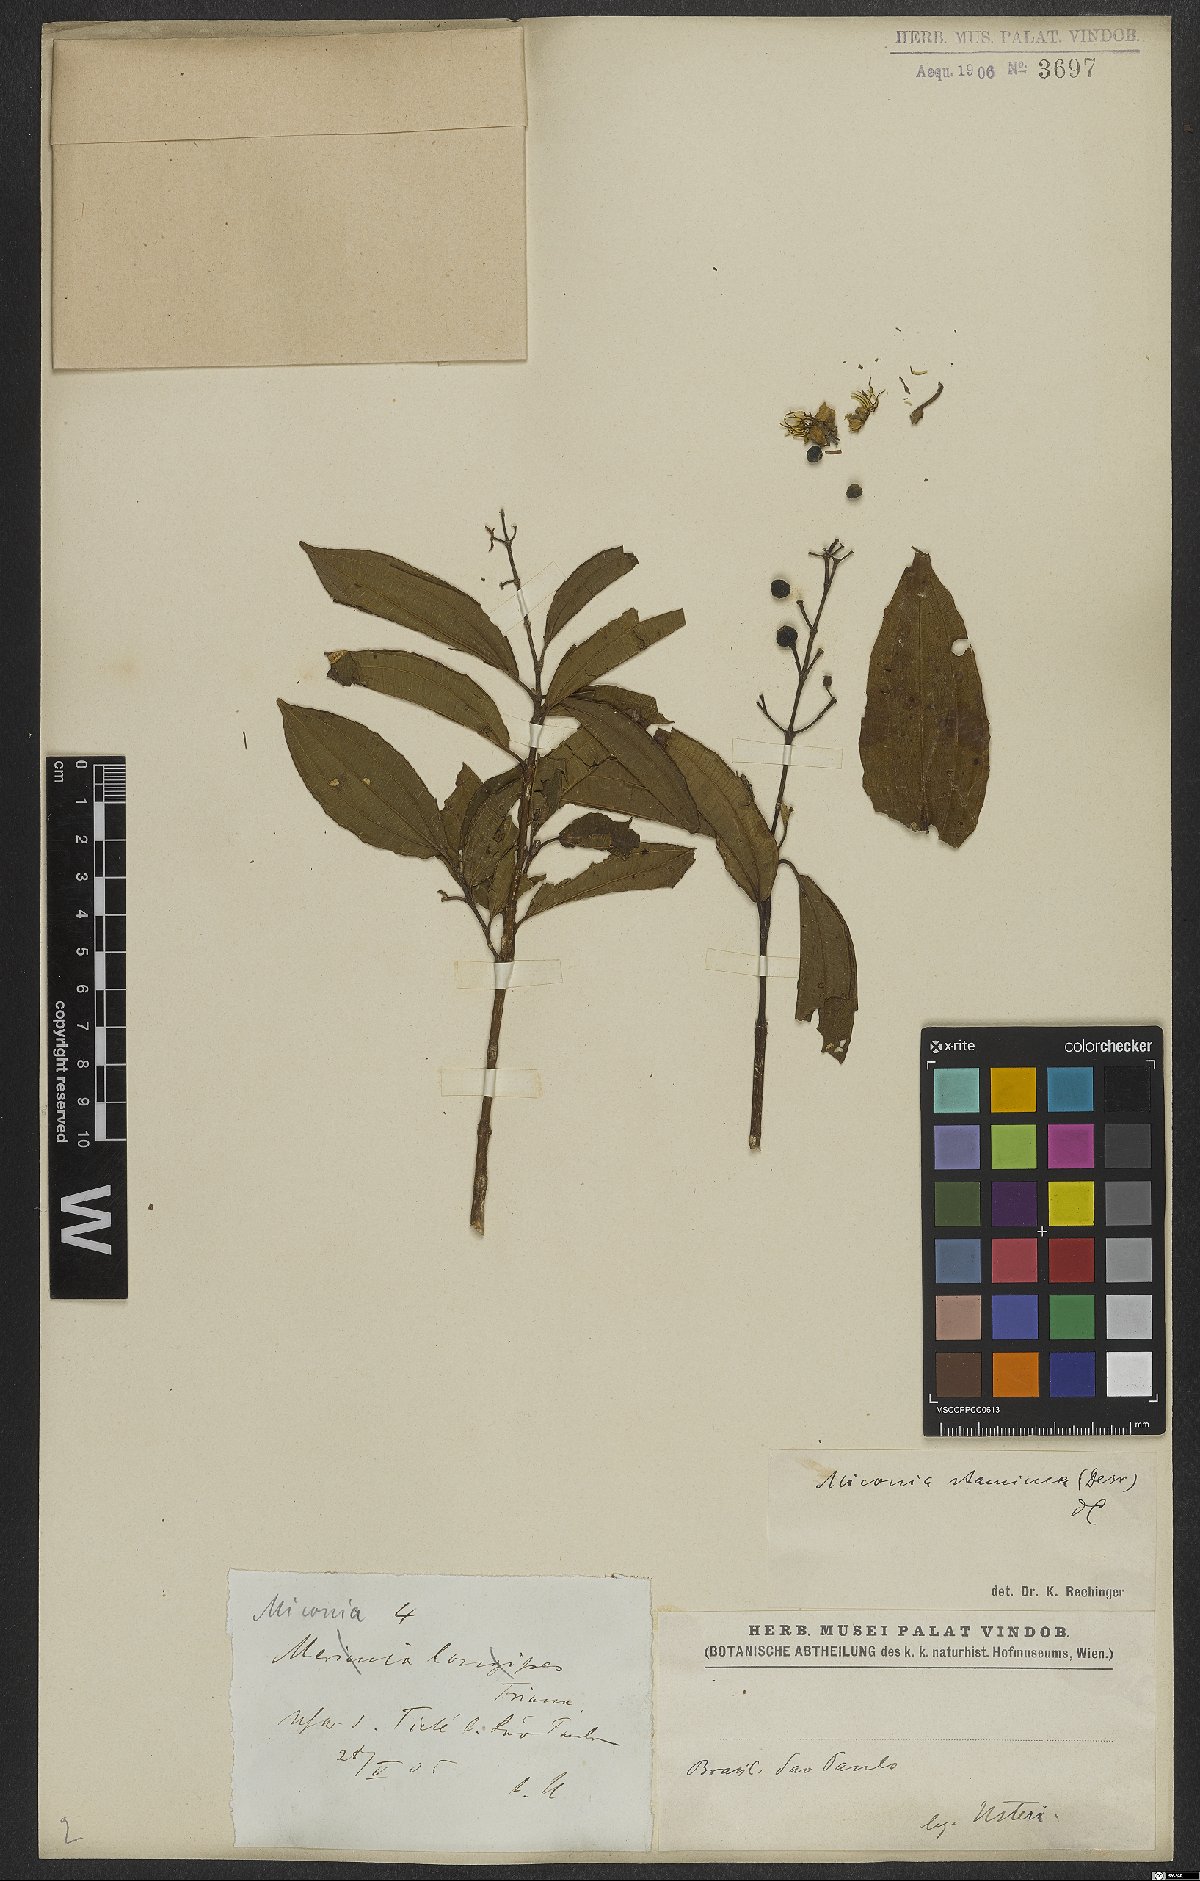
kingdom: Plantae
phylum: Tracheophyta
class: Magnoliopsida
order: Myrtales
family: Melastomataceae
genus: Miconia
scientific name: Miconia staminea
